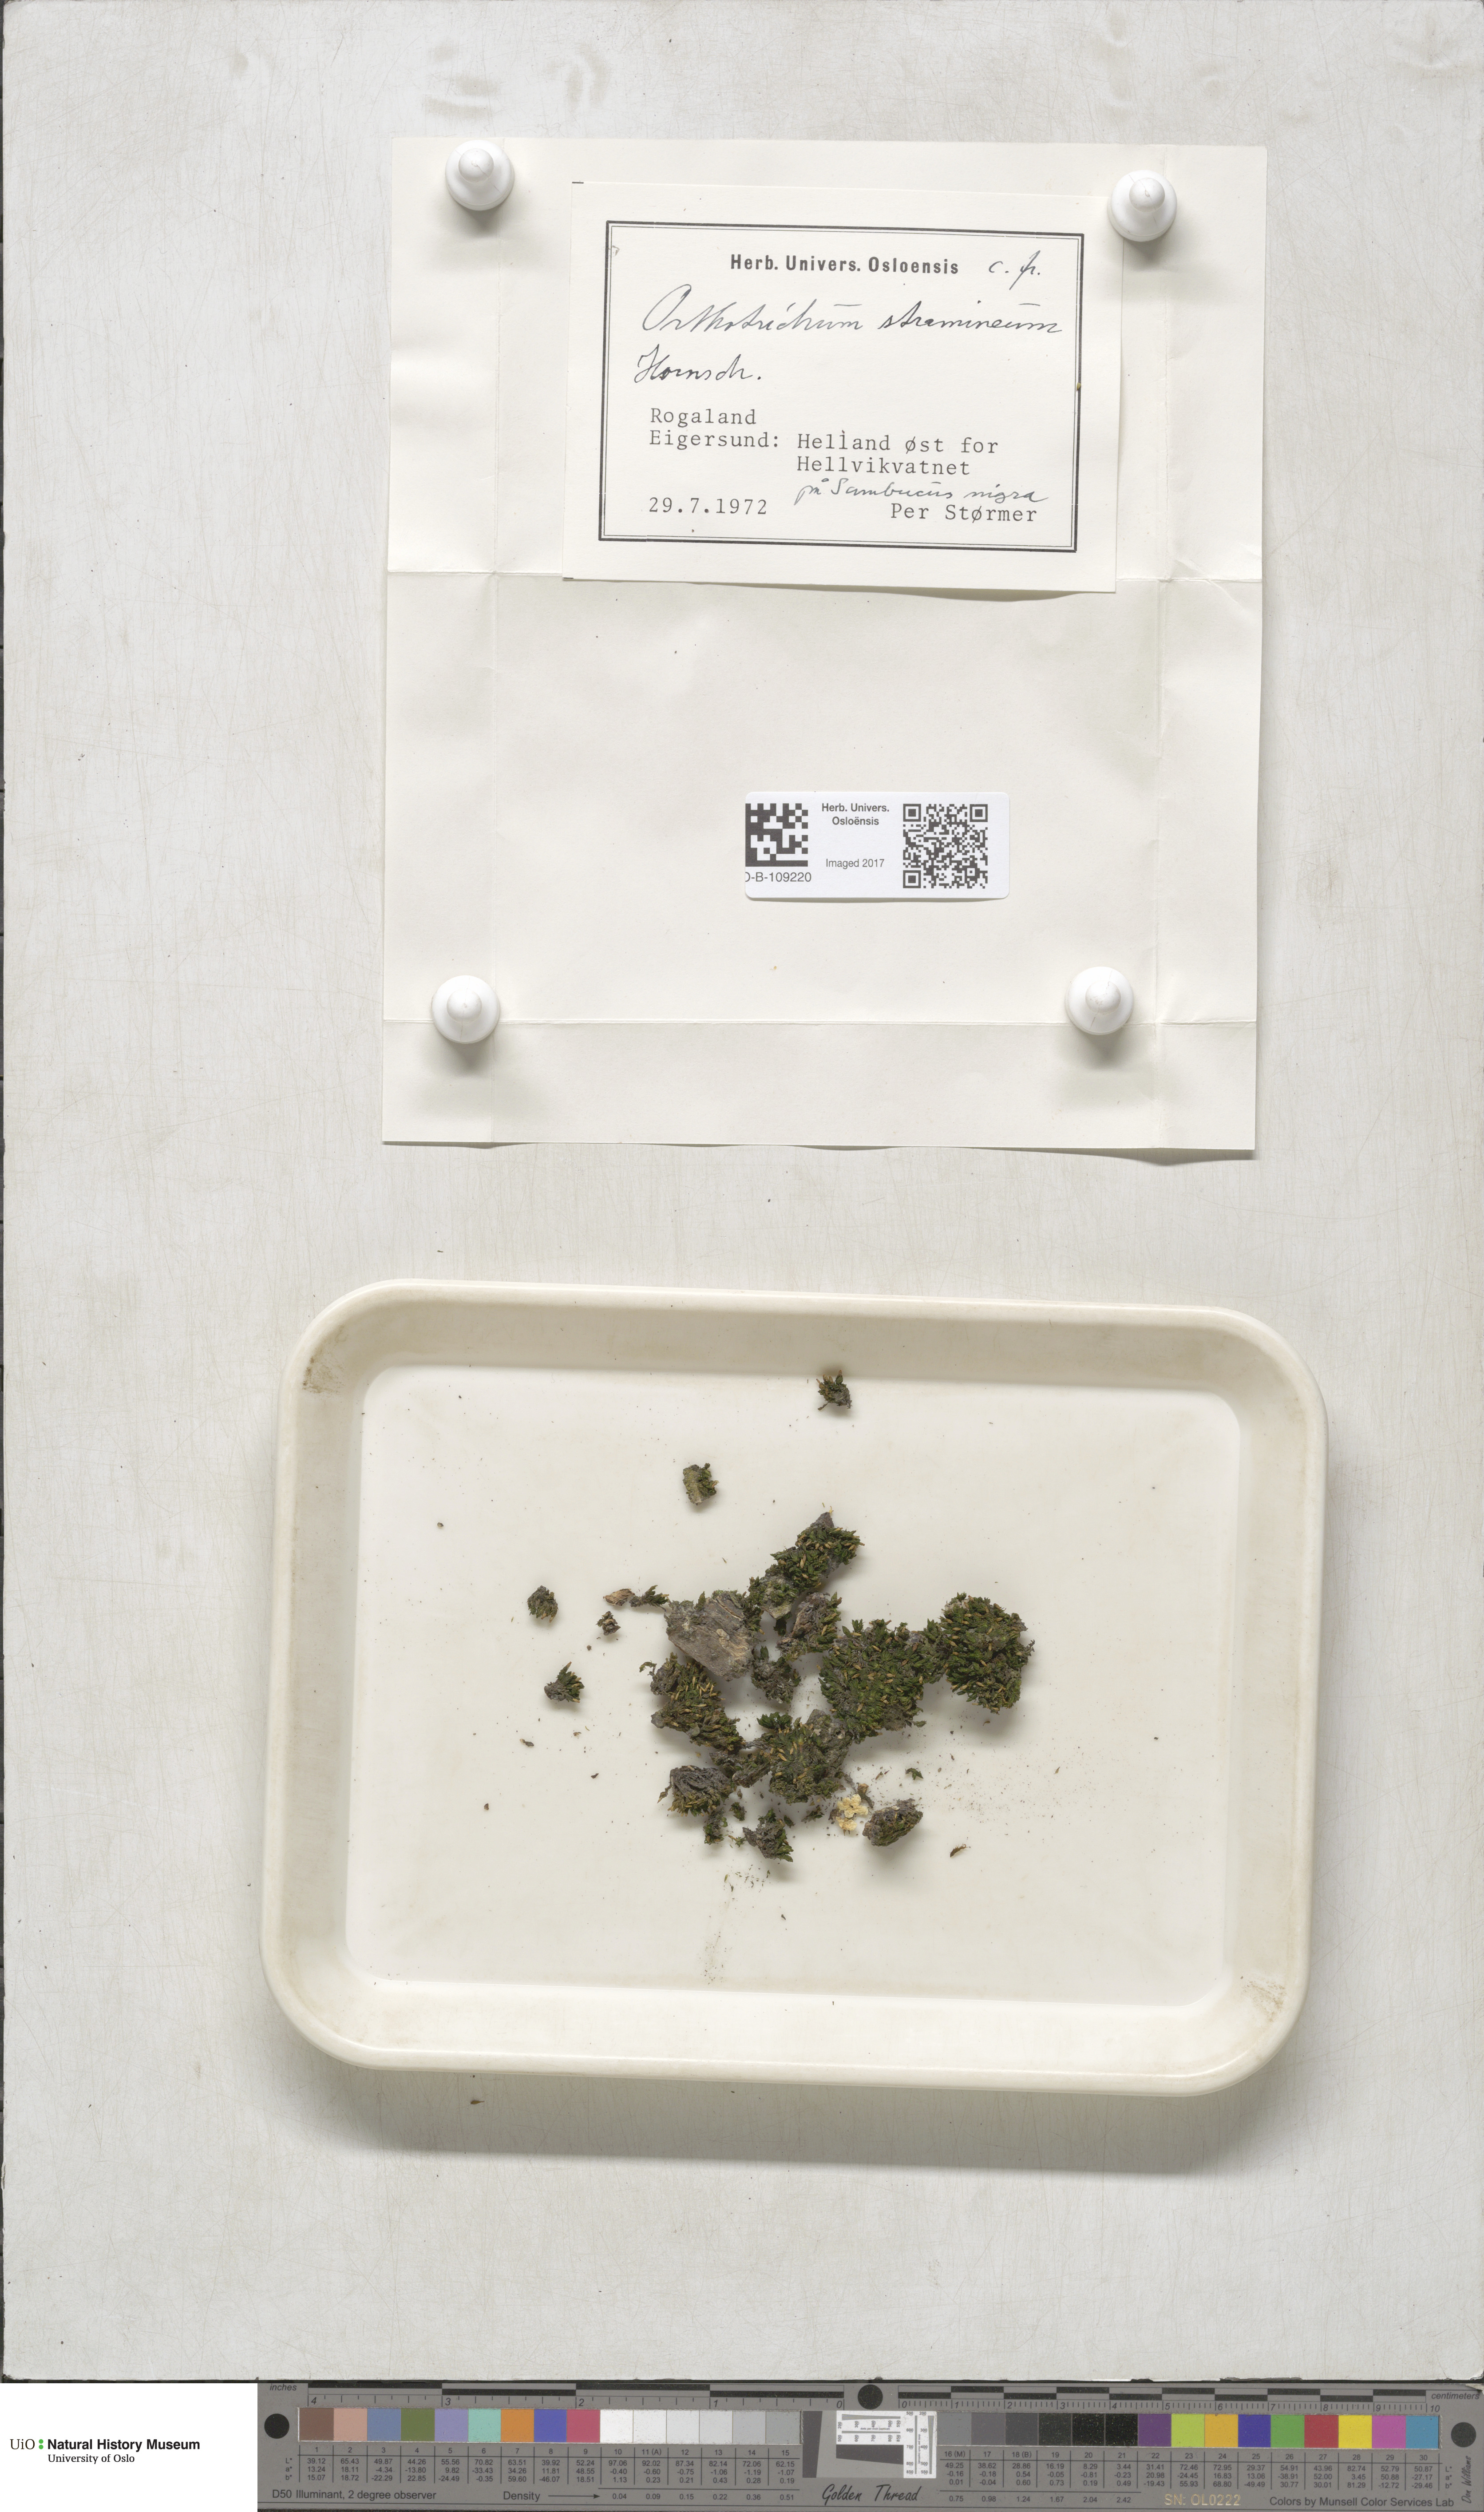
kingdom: Plantae
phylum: Bryophyta
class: Bryopsida
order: Orthotrichales
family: Orthotrichaceae
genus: Orthotrichum
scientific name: Orthotrichum stramineum
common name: Straw bristle-moss
